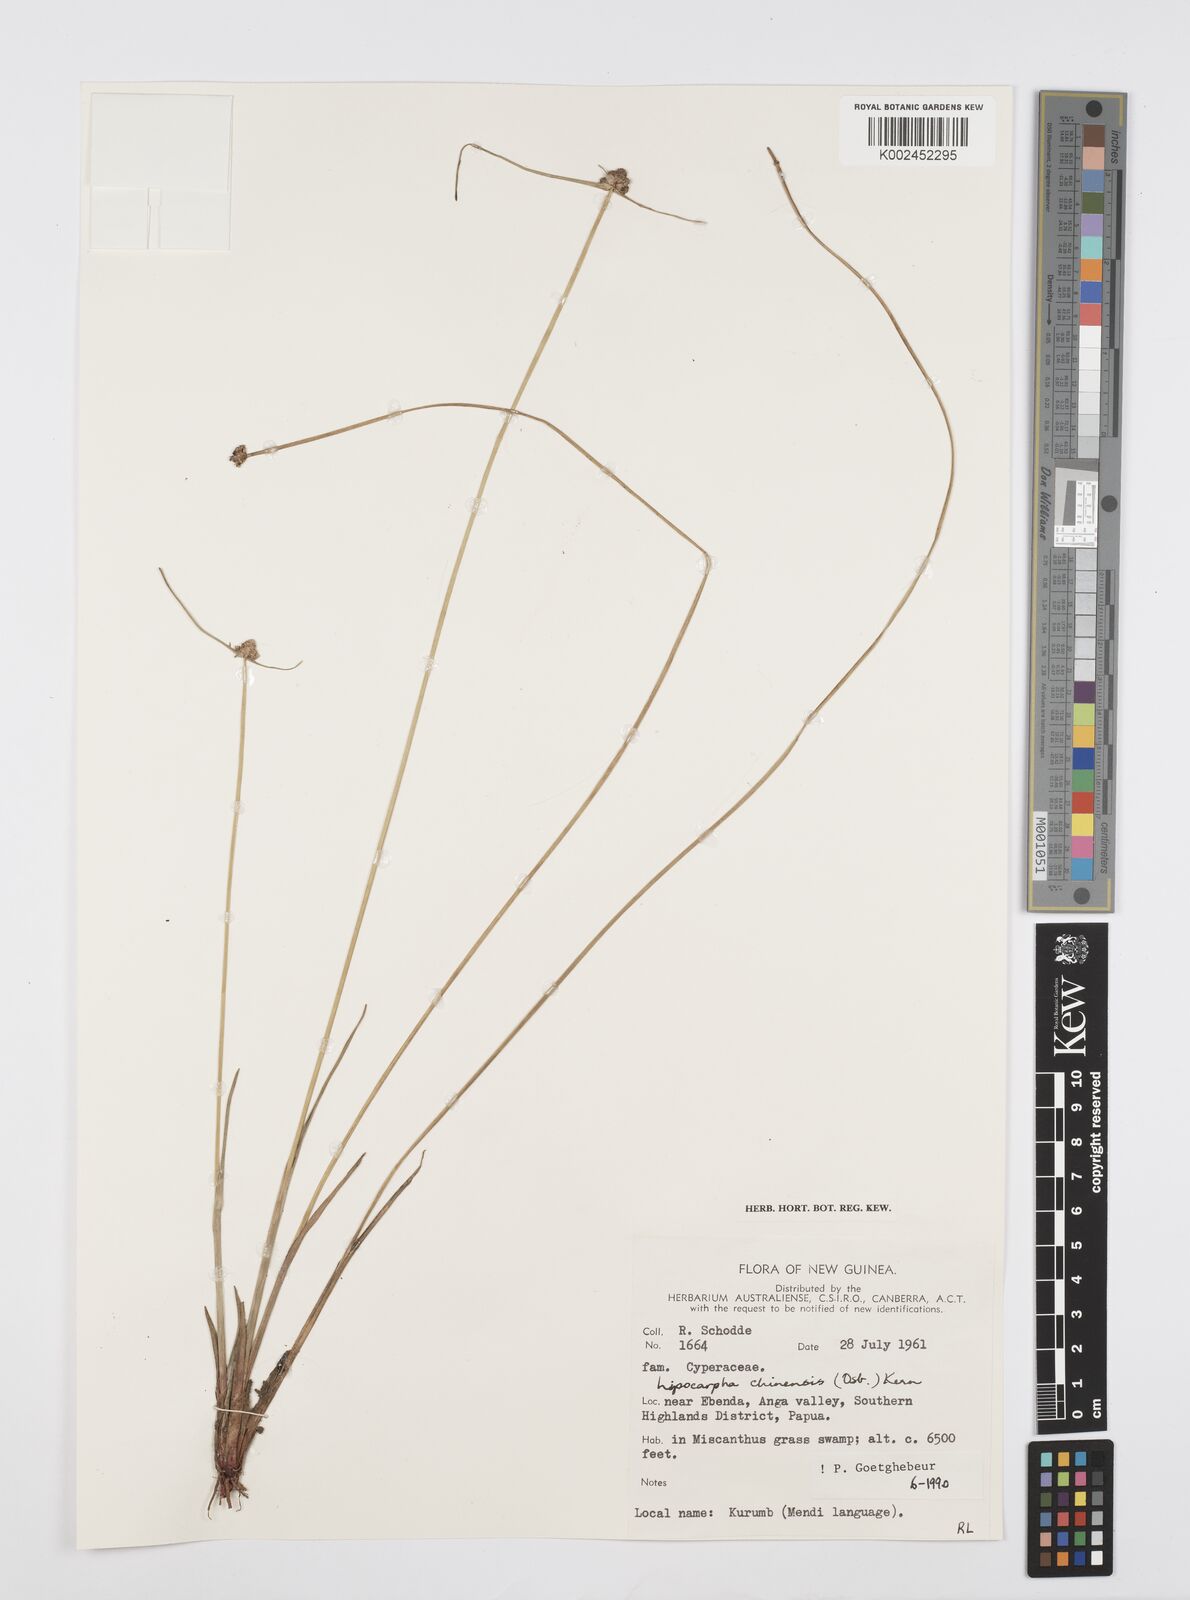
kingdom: Plantae
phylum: Tracheophyta
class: Liliopsida
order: Poales
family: Cyperaceae
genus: Cyperus
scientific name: Cyperus albescens
